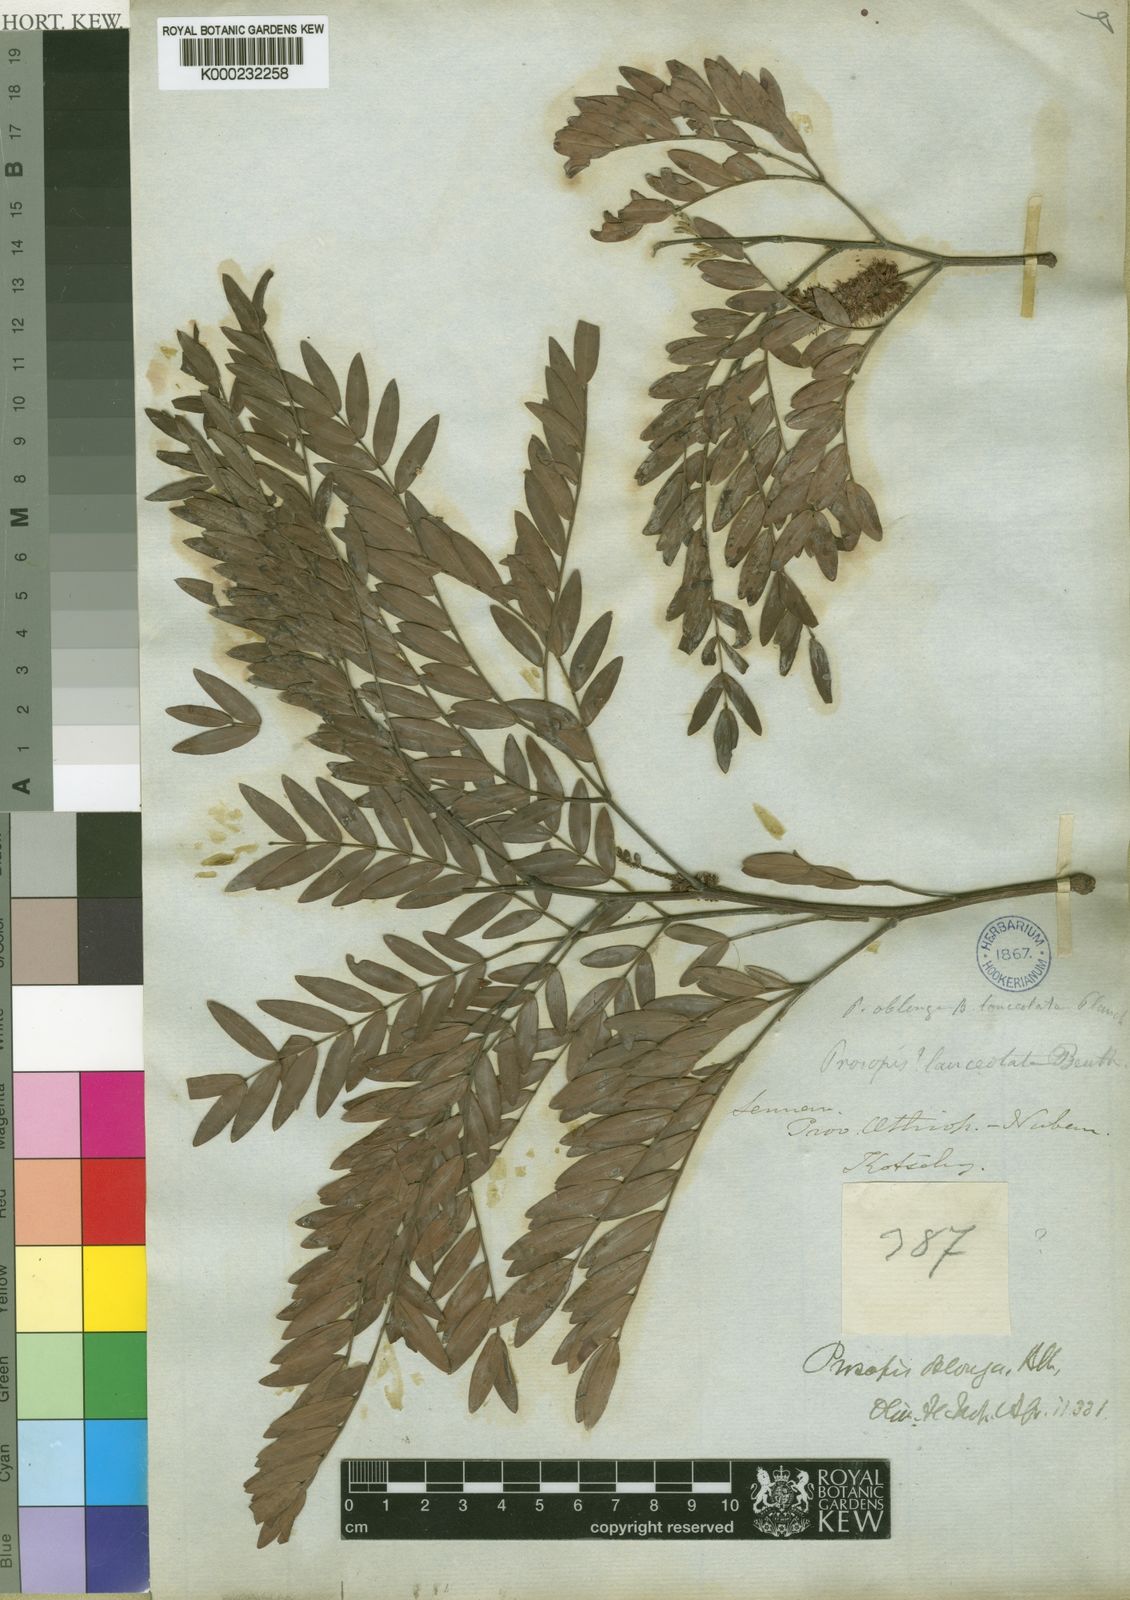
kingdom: Plantae
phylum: Tracheophyta
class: Magnoliopsida
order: Fabales
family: Fabaceae
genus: Prosopis
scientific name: Prosopis africana
